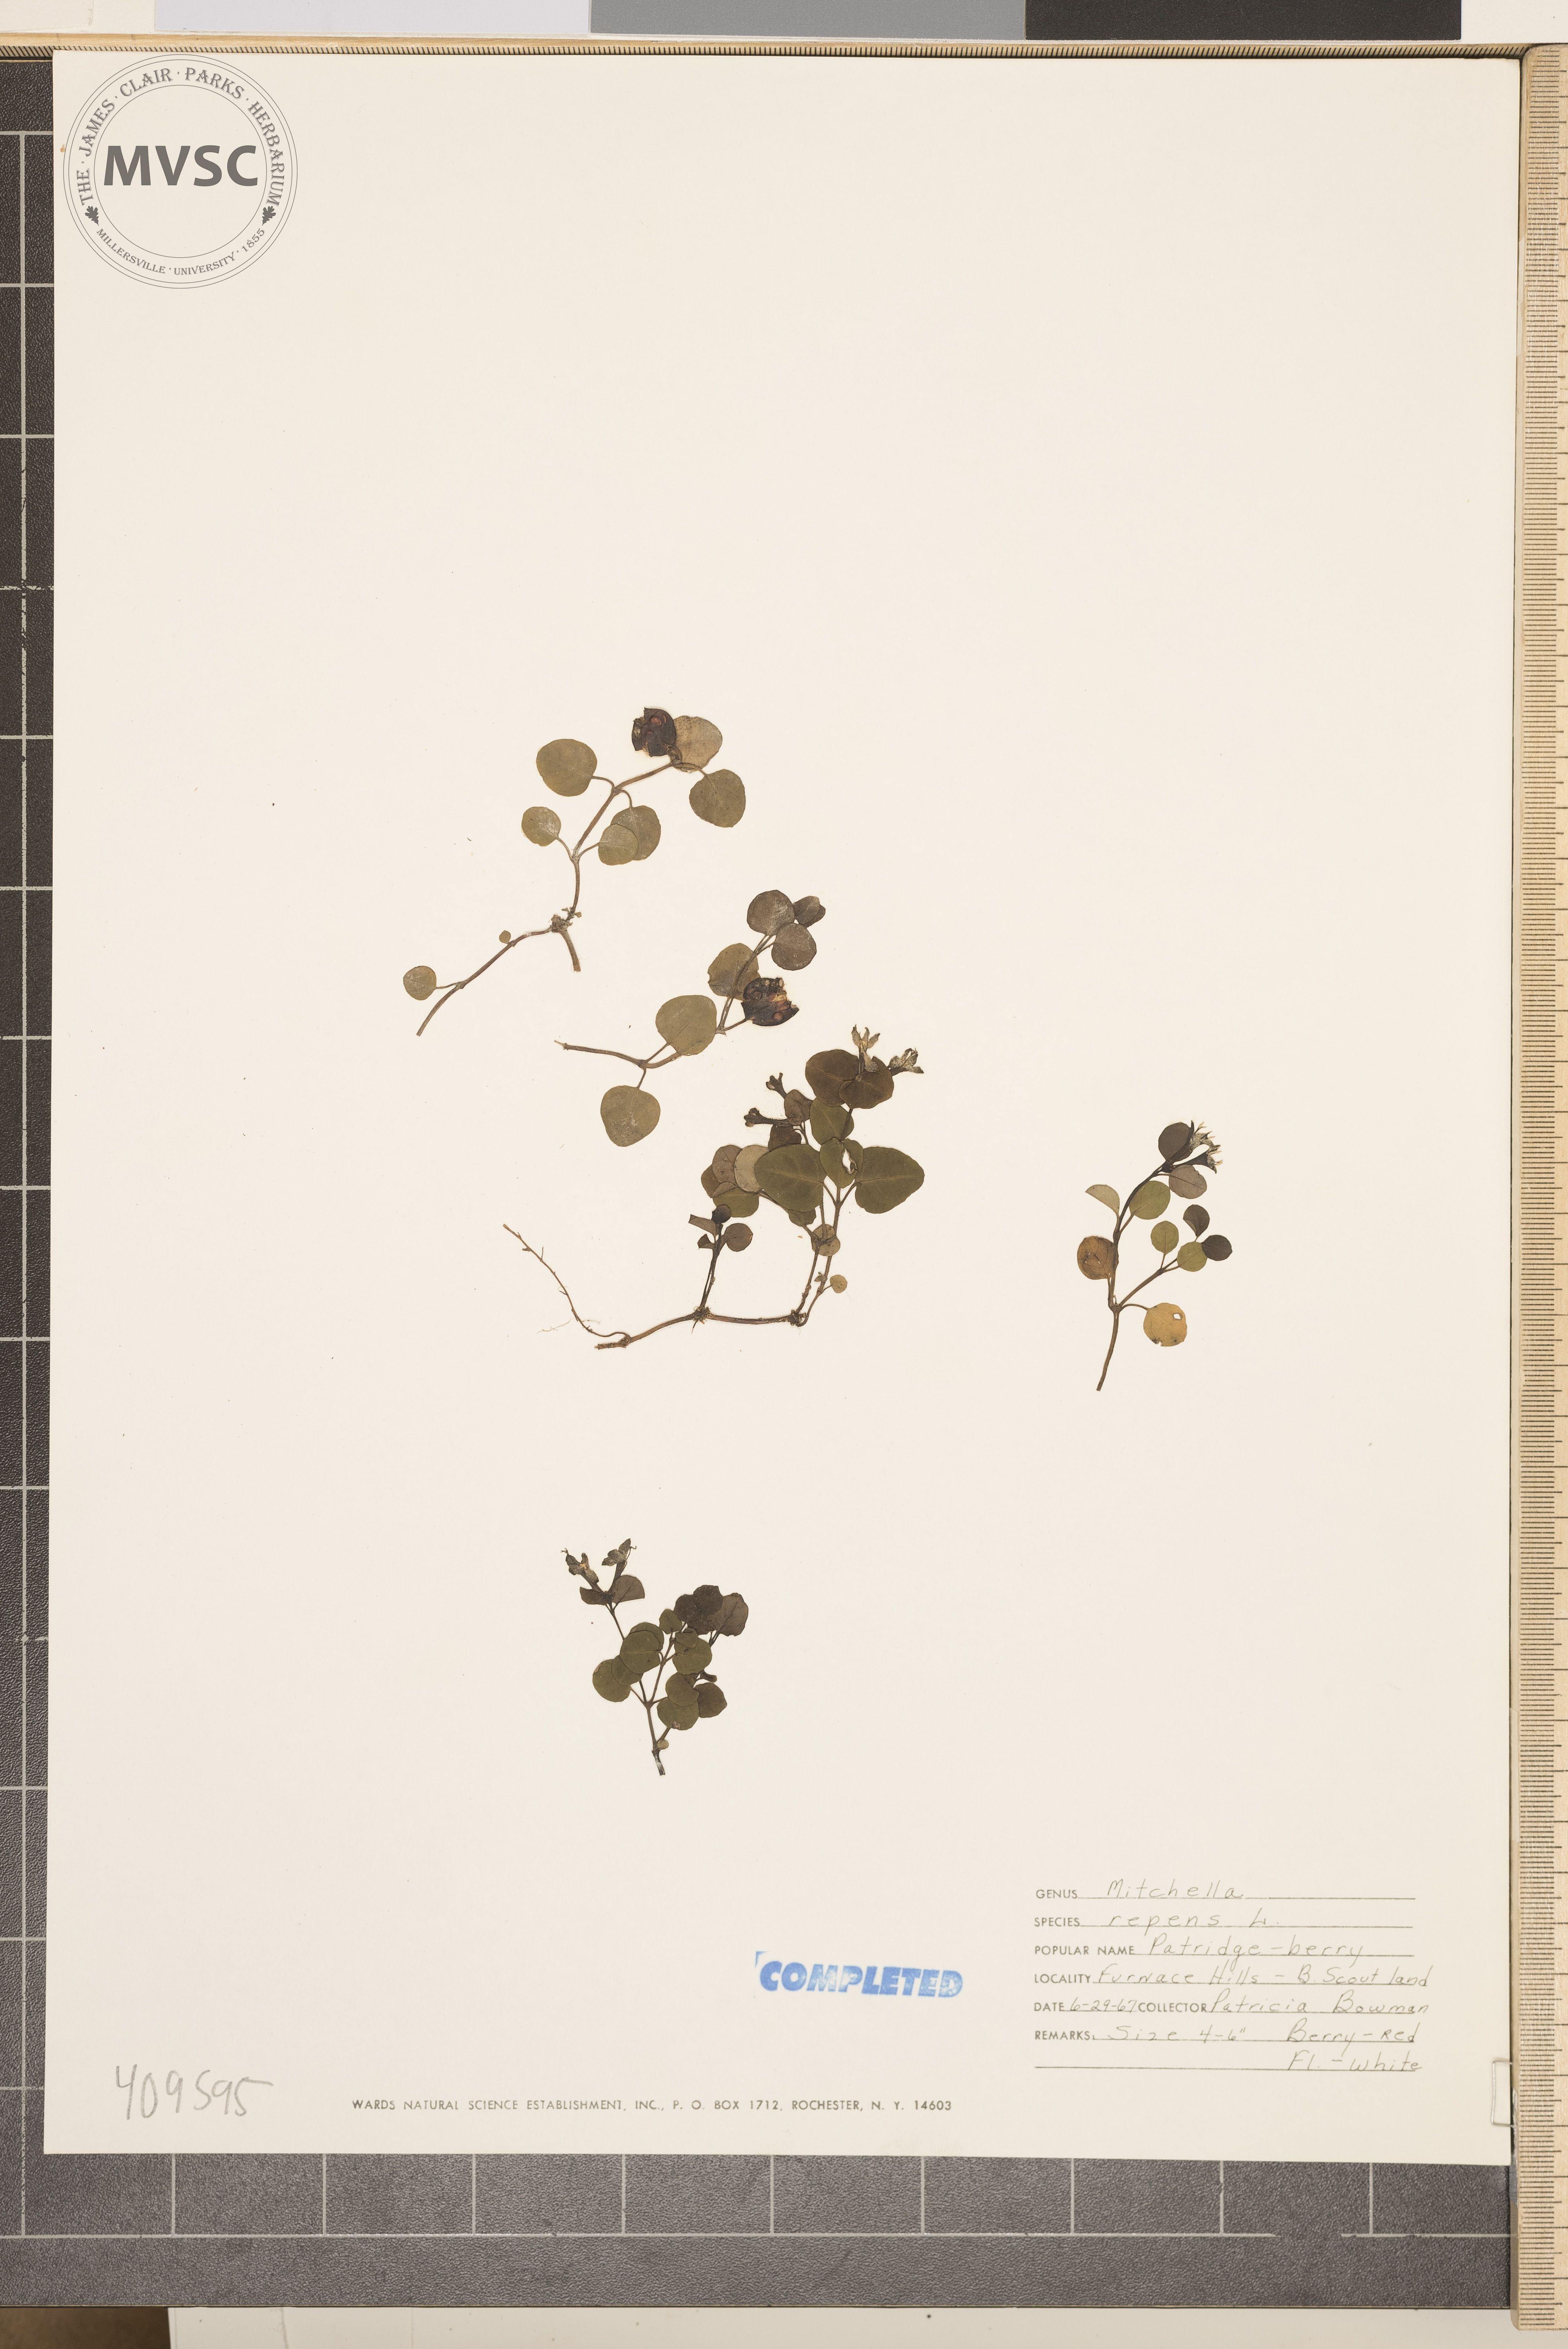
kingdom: Plantae
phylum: Tracheophyta
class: Magnoliopsida
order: Gentianales
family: Rubiaceae
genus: Mitchella
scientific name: Mitchella repens
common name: Partridge-berry
